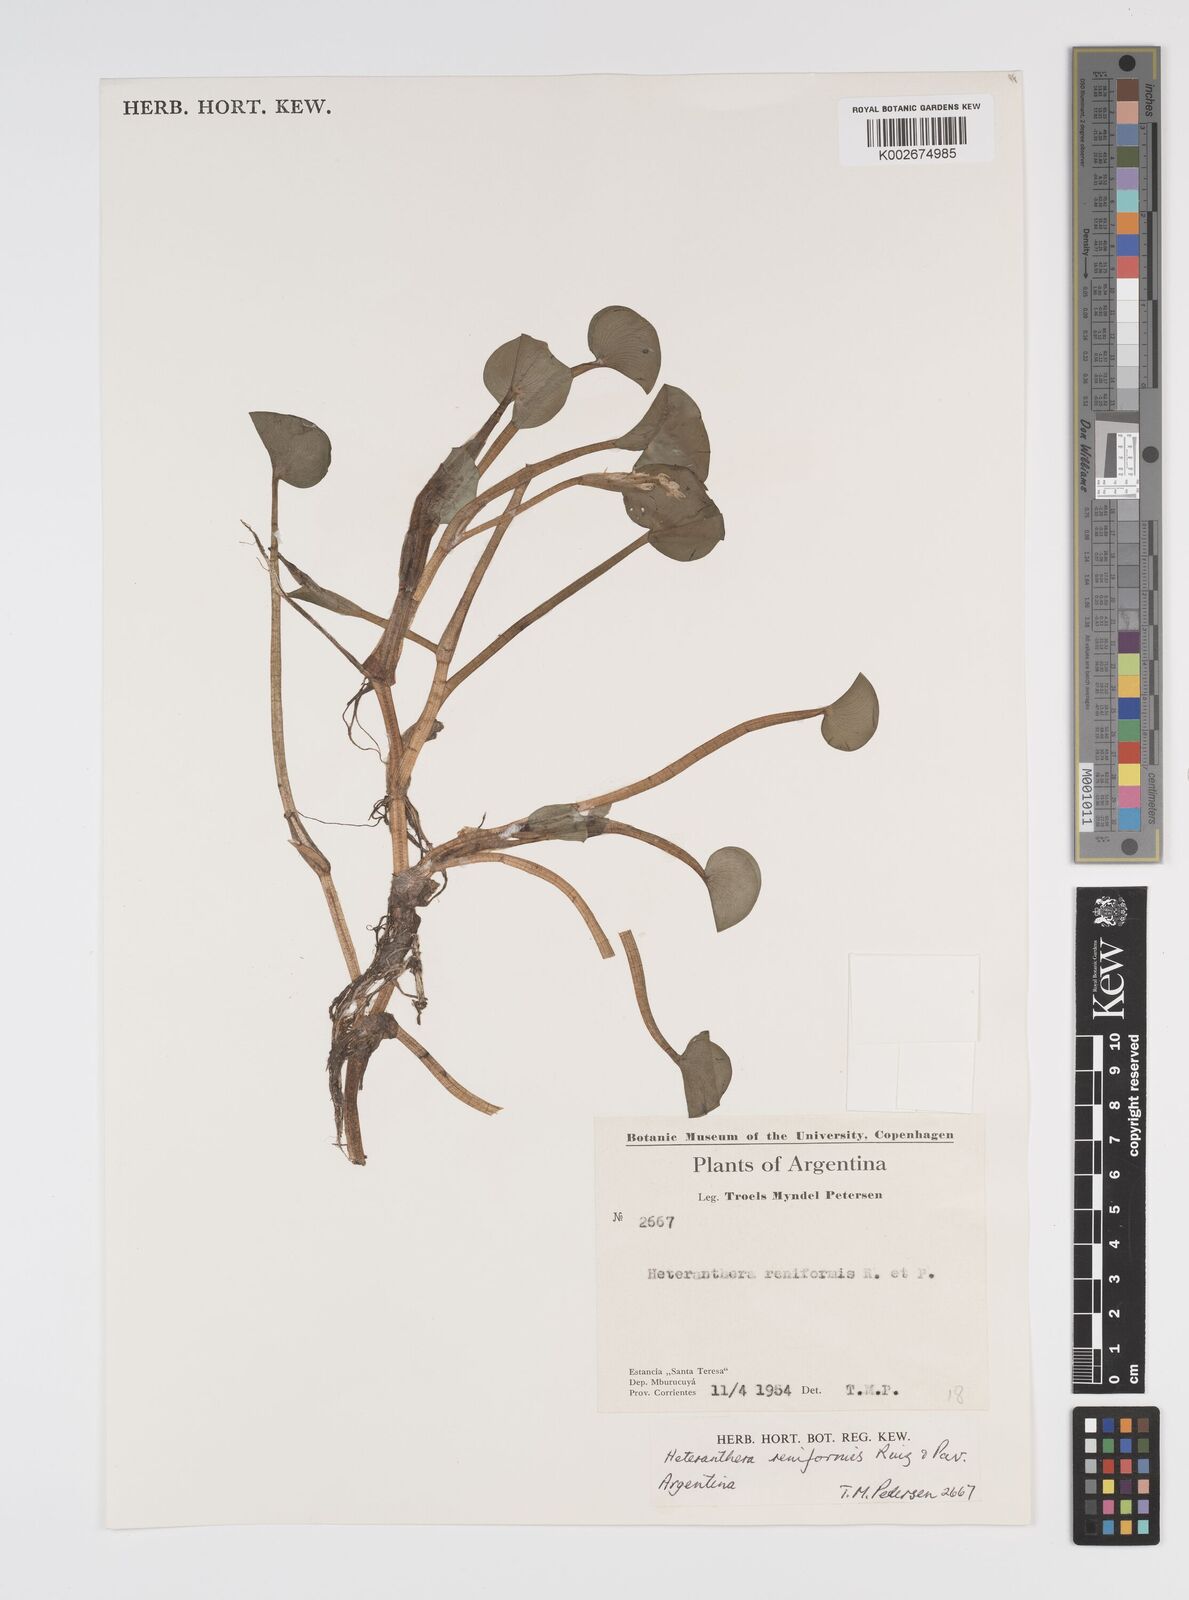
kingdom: Plantae
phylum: Tracheophyta
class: Liliopsida
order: Commelinales
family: Pontederiaceae
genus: Heteranthera
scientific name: Heteranthera reniformis
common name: Kidneyleaf mudplantain
